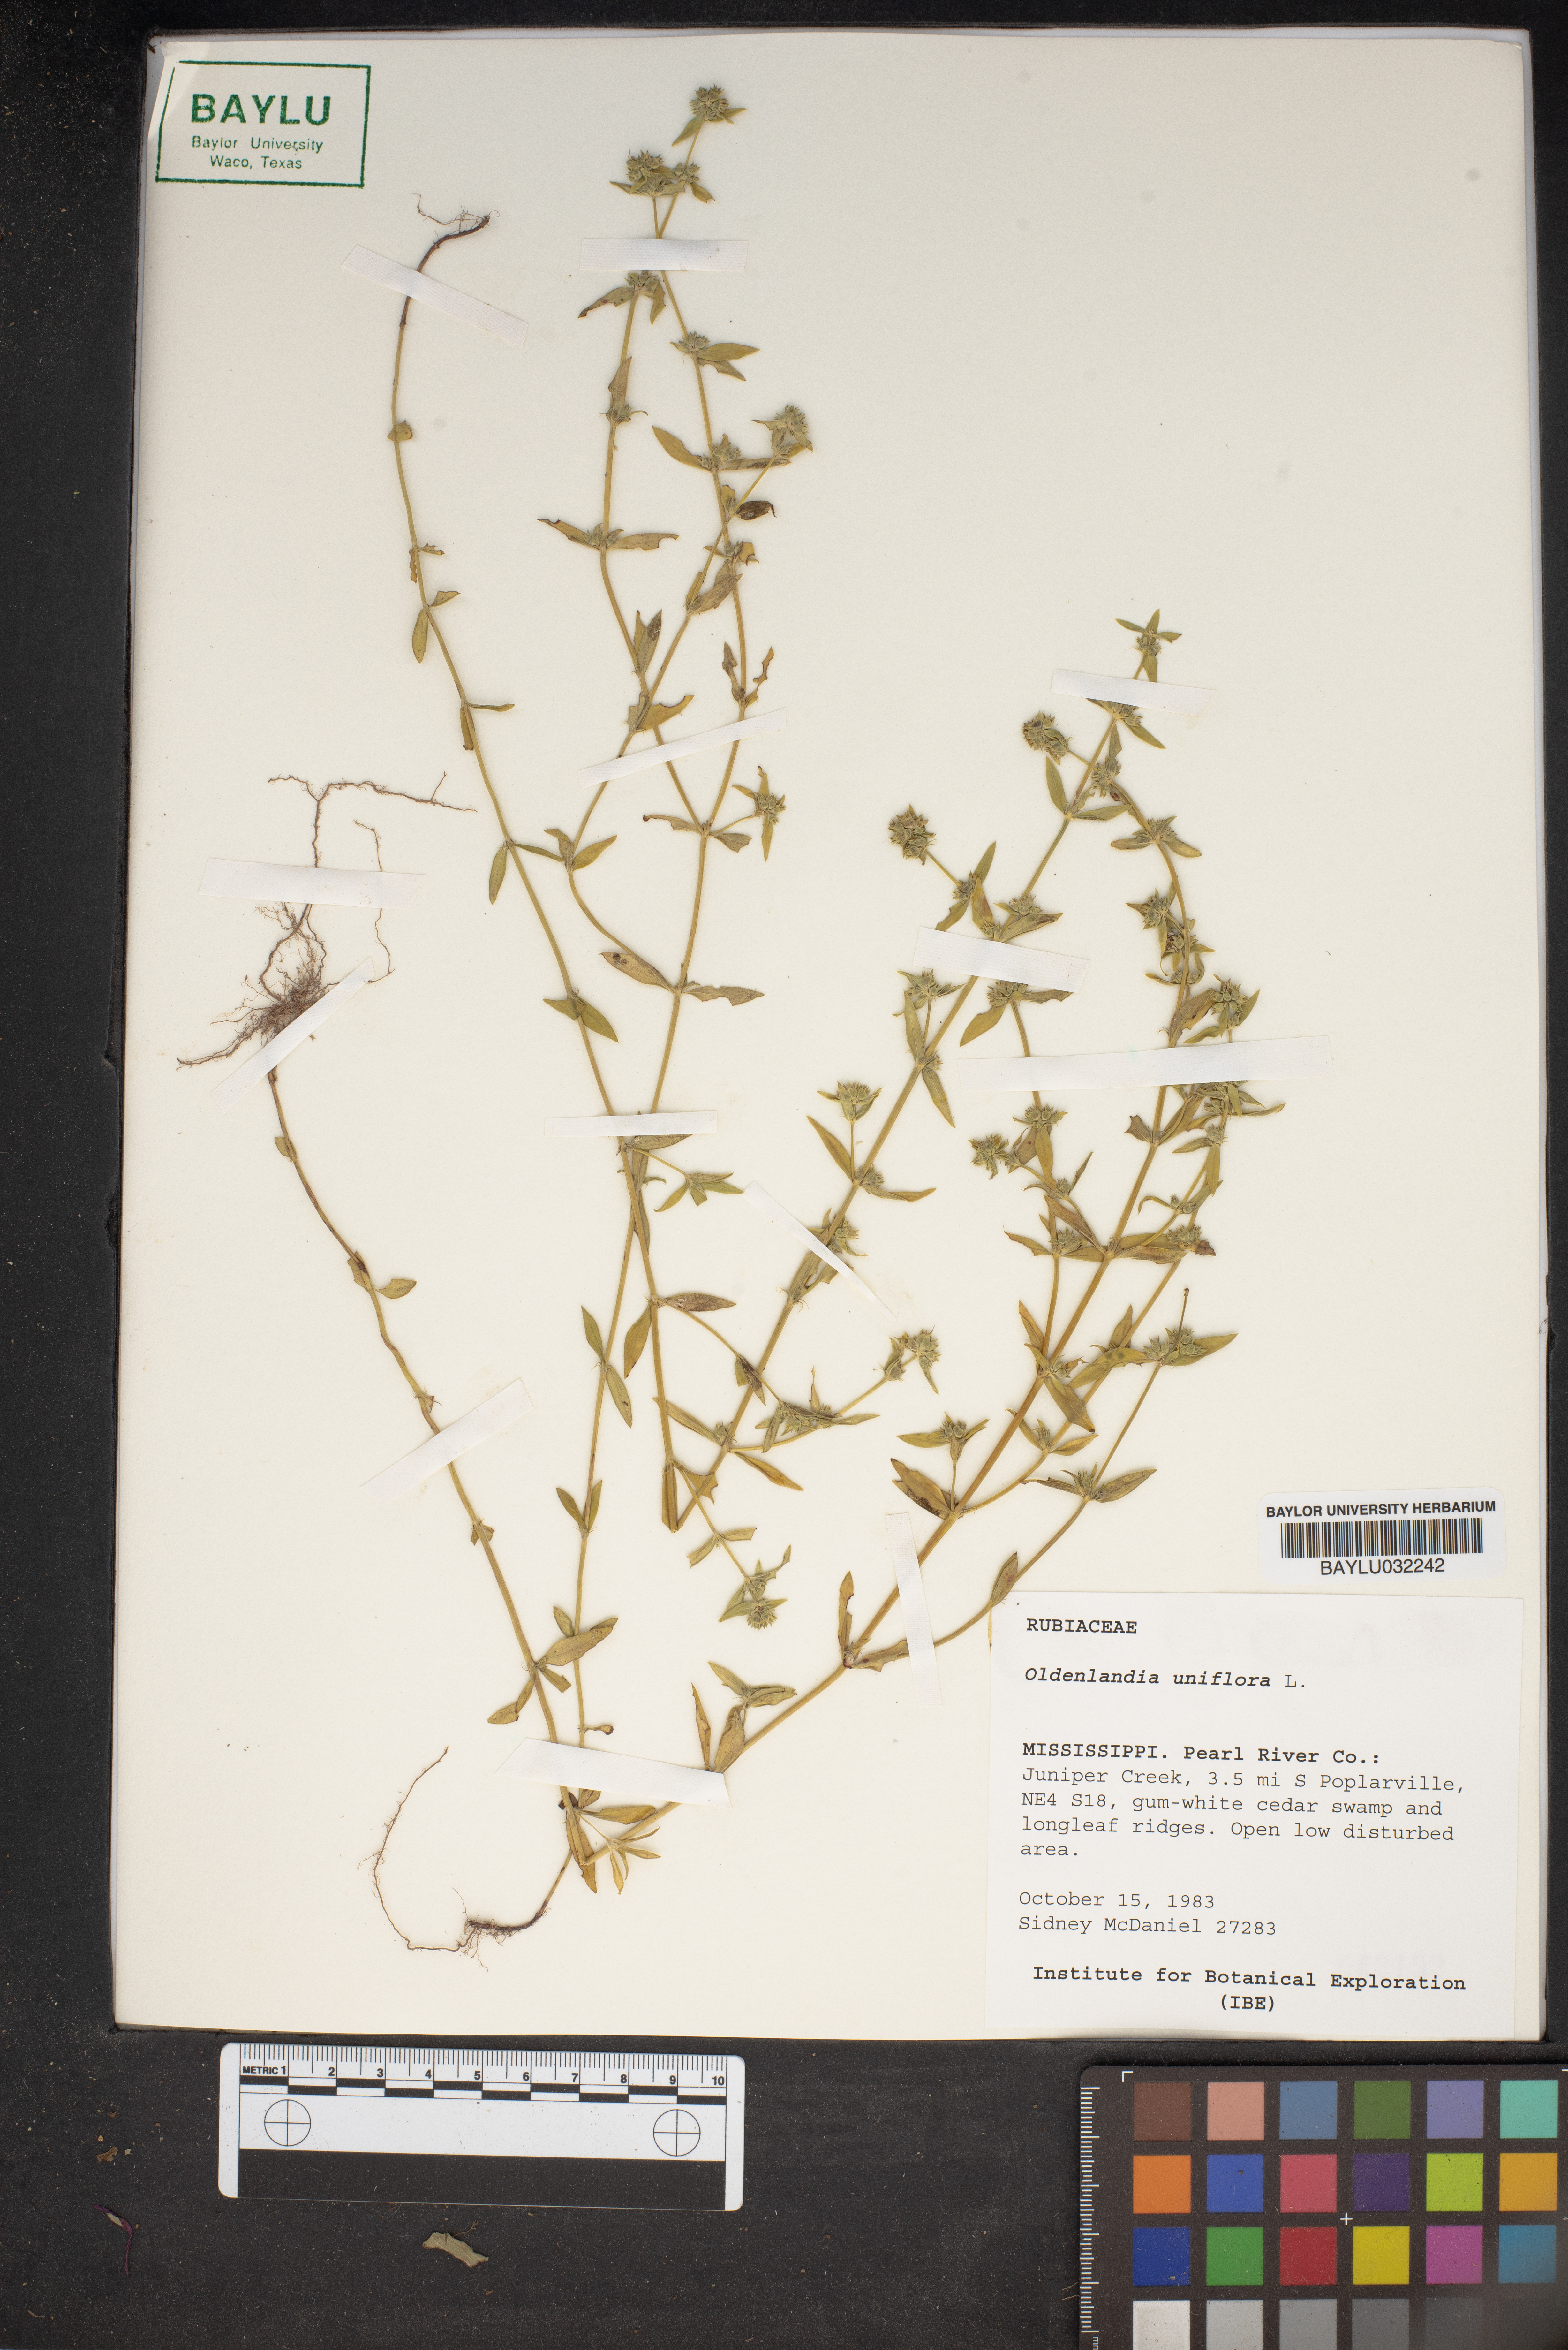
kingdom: Plantae
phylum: Tracheophyta
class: Magnoliopsida
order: Gentianales
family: Rubiaceae
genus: Edrastima
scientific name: Edrastima uniflora
